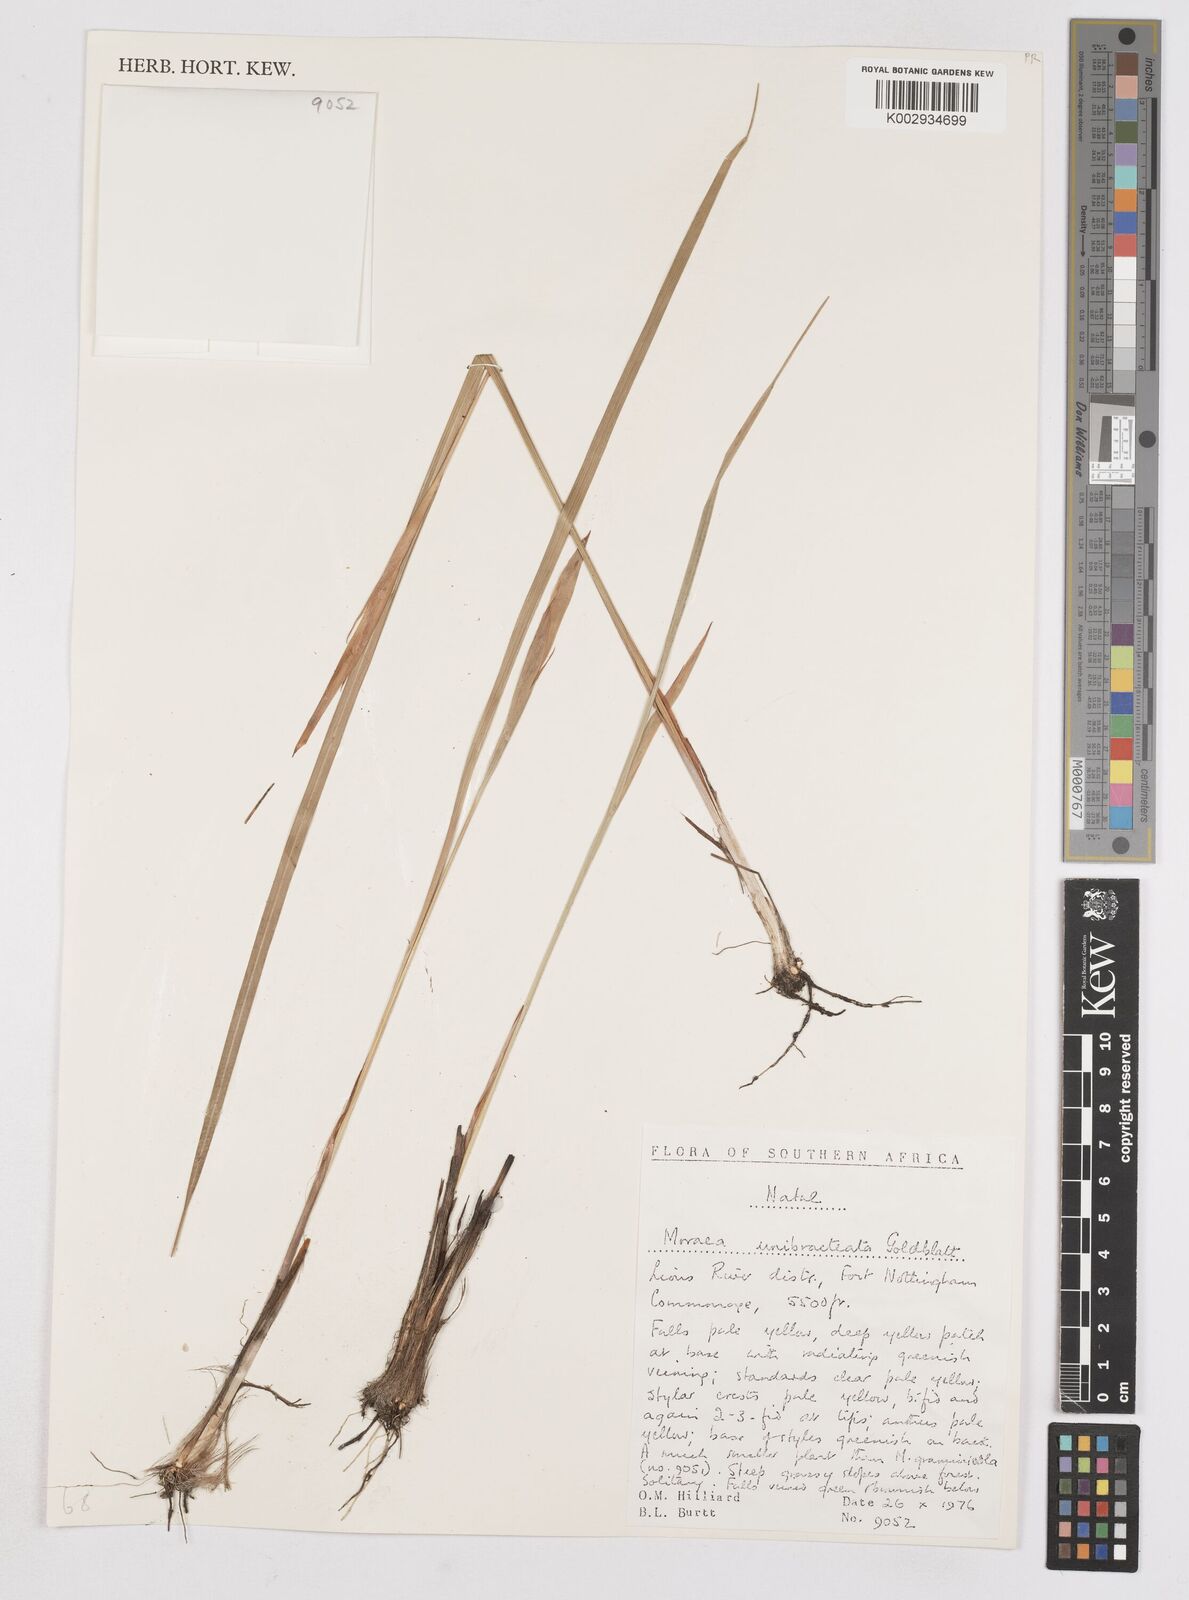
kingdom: Plantae
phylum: Tracheophyta
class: Liliopsida
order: Asparagales
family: Iridaceae
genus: Moraea
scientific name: Moraea unibracteata
